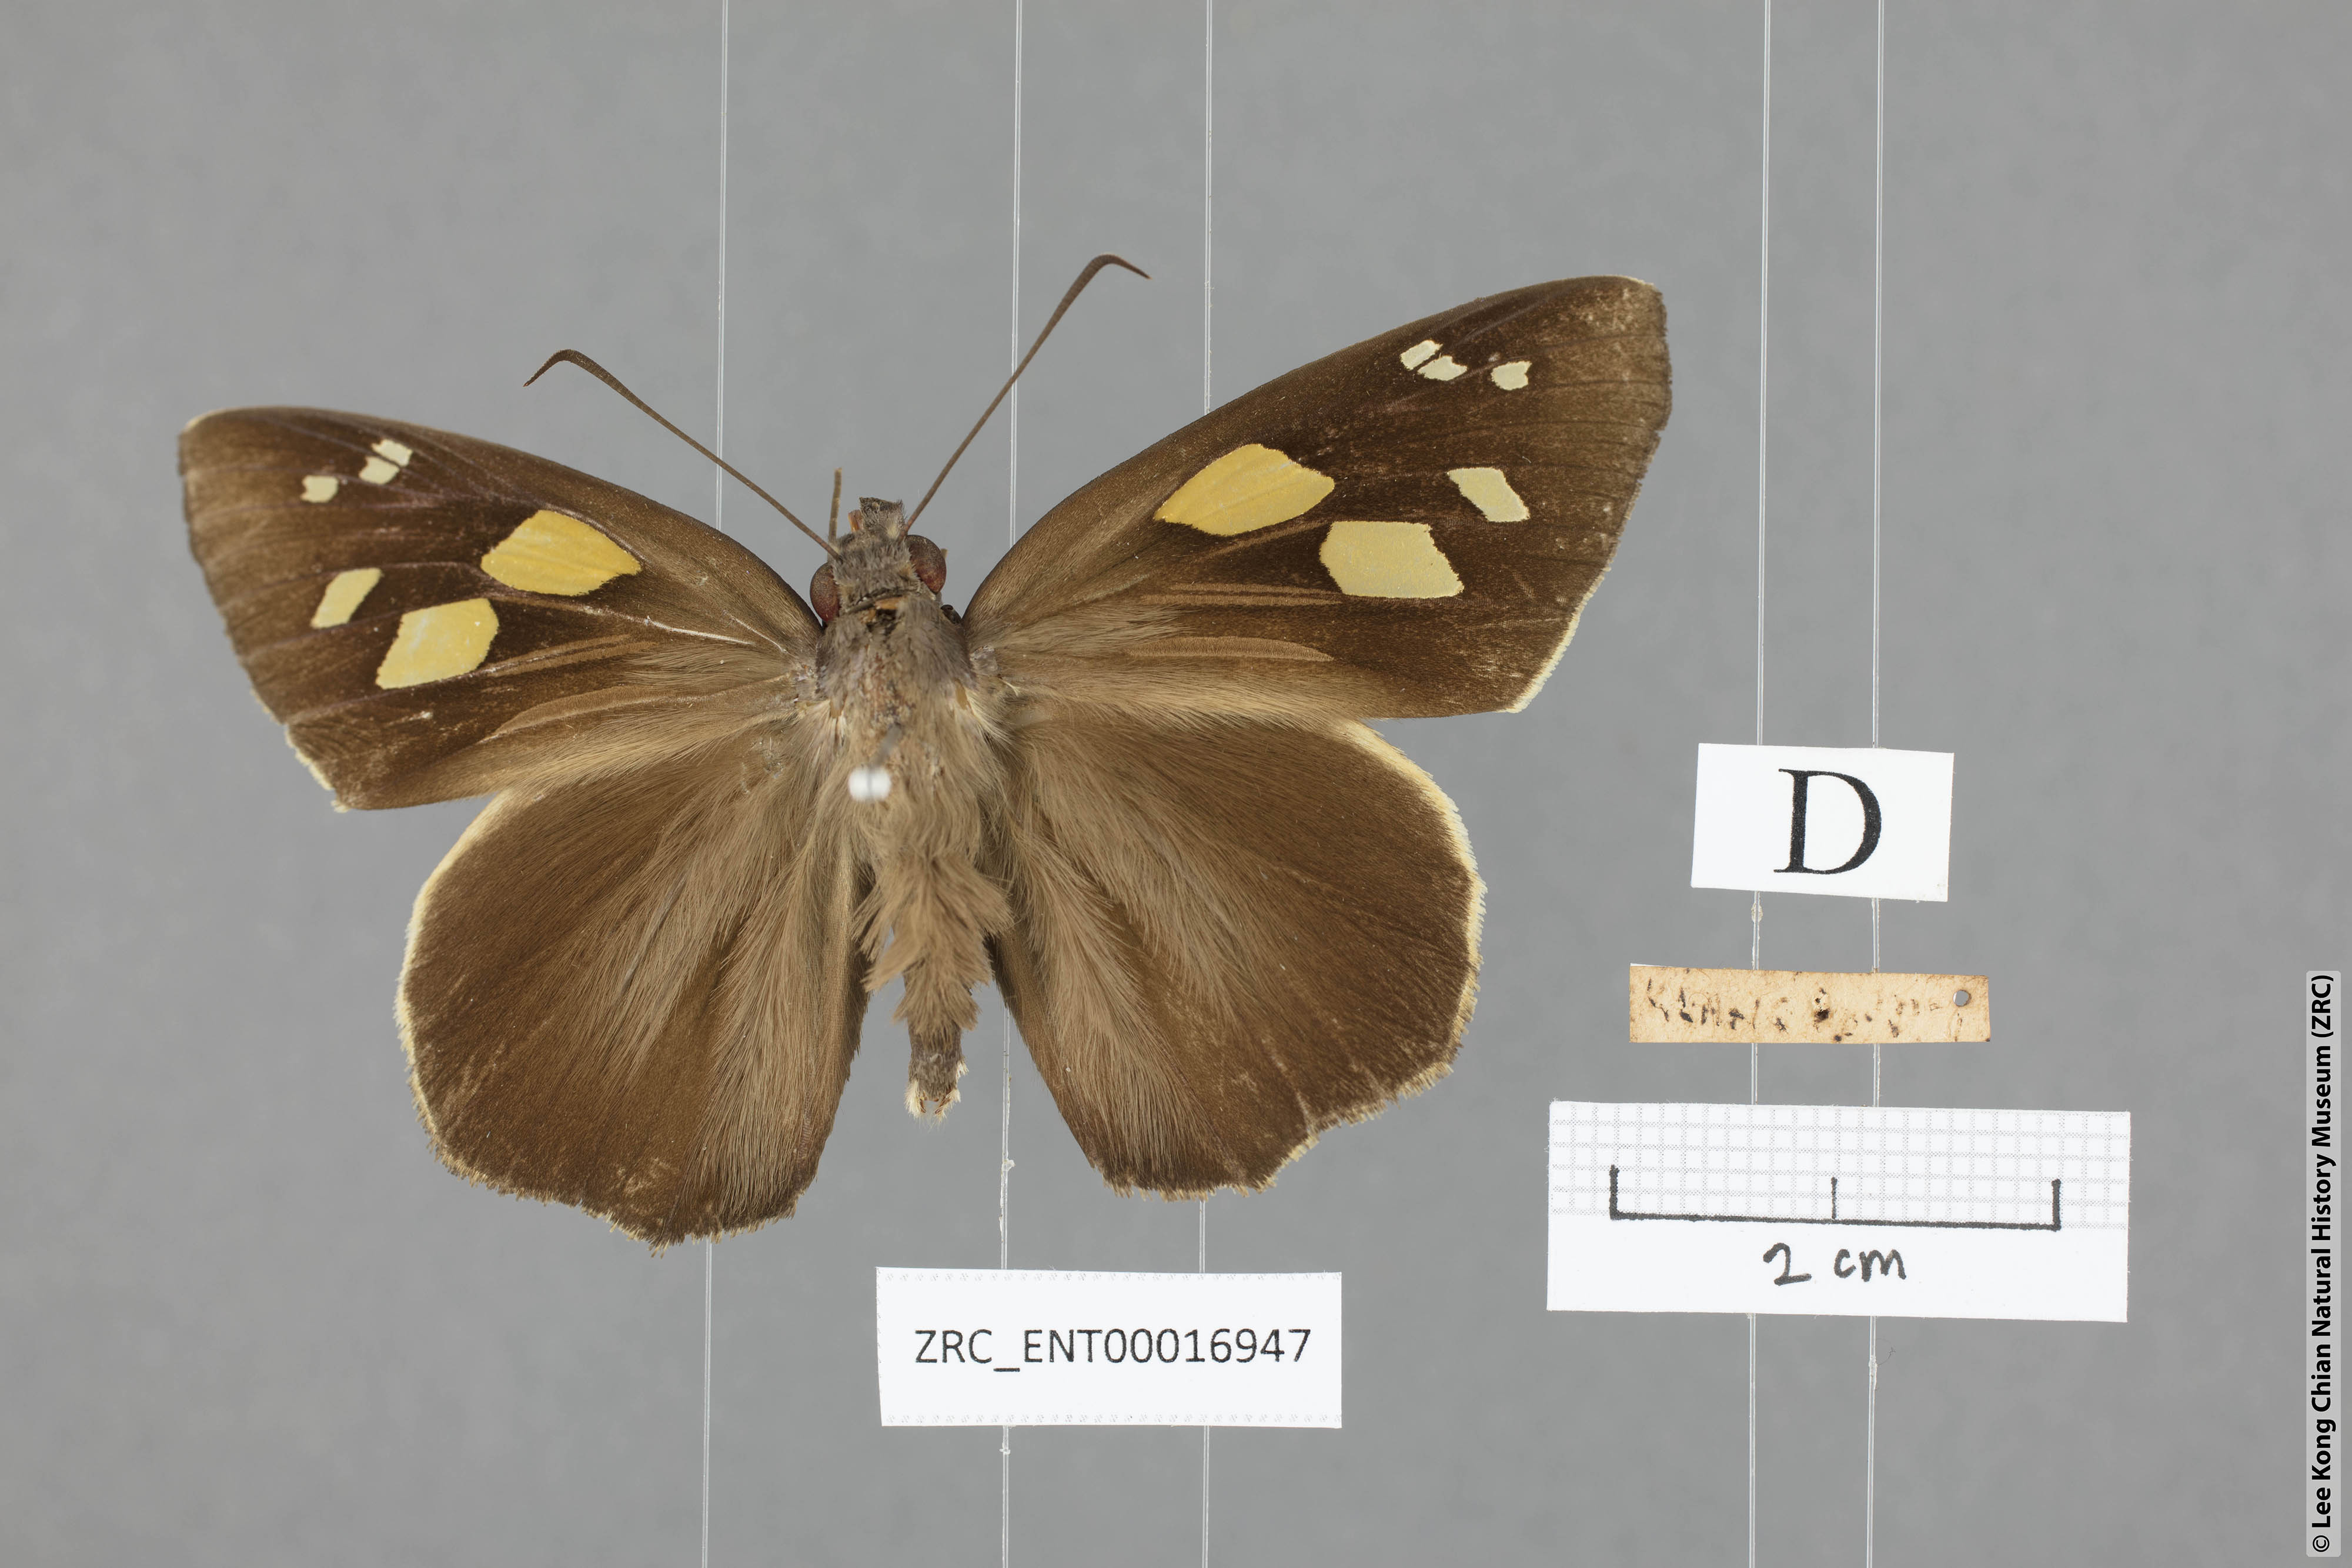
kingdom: Animalia
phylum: Arthropoda
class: Insecta
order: Lepidoptera
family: Hesperiidae
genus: Gangara
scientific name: Gangara thyrsis
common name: Giant redeye
